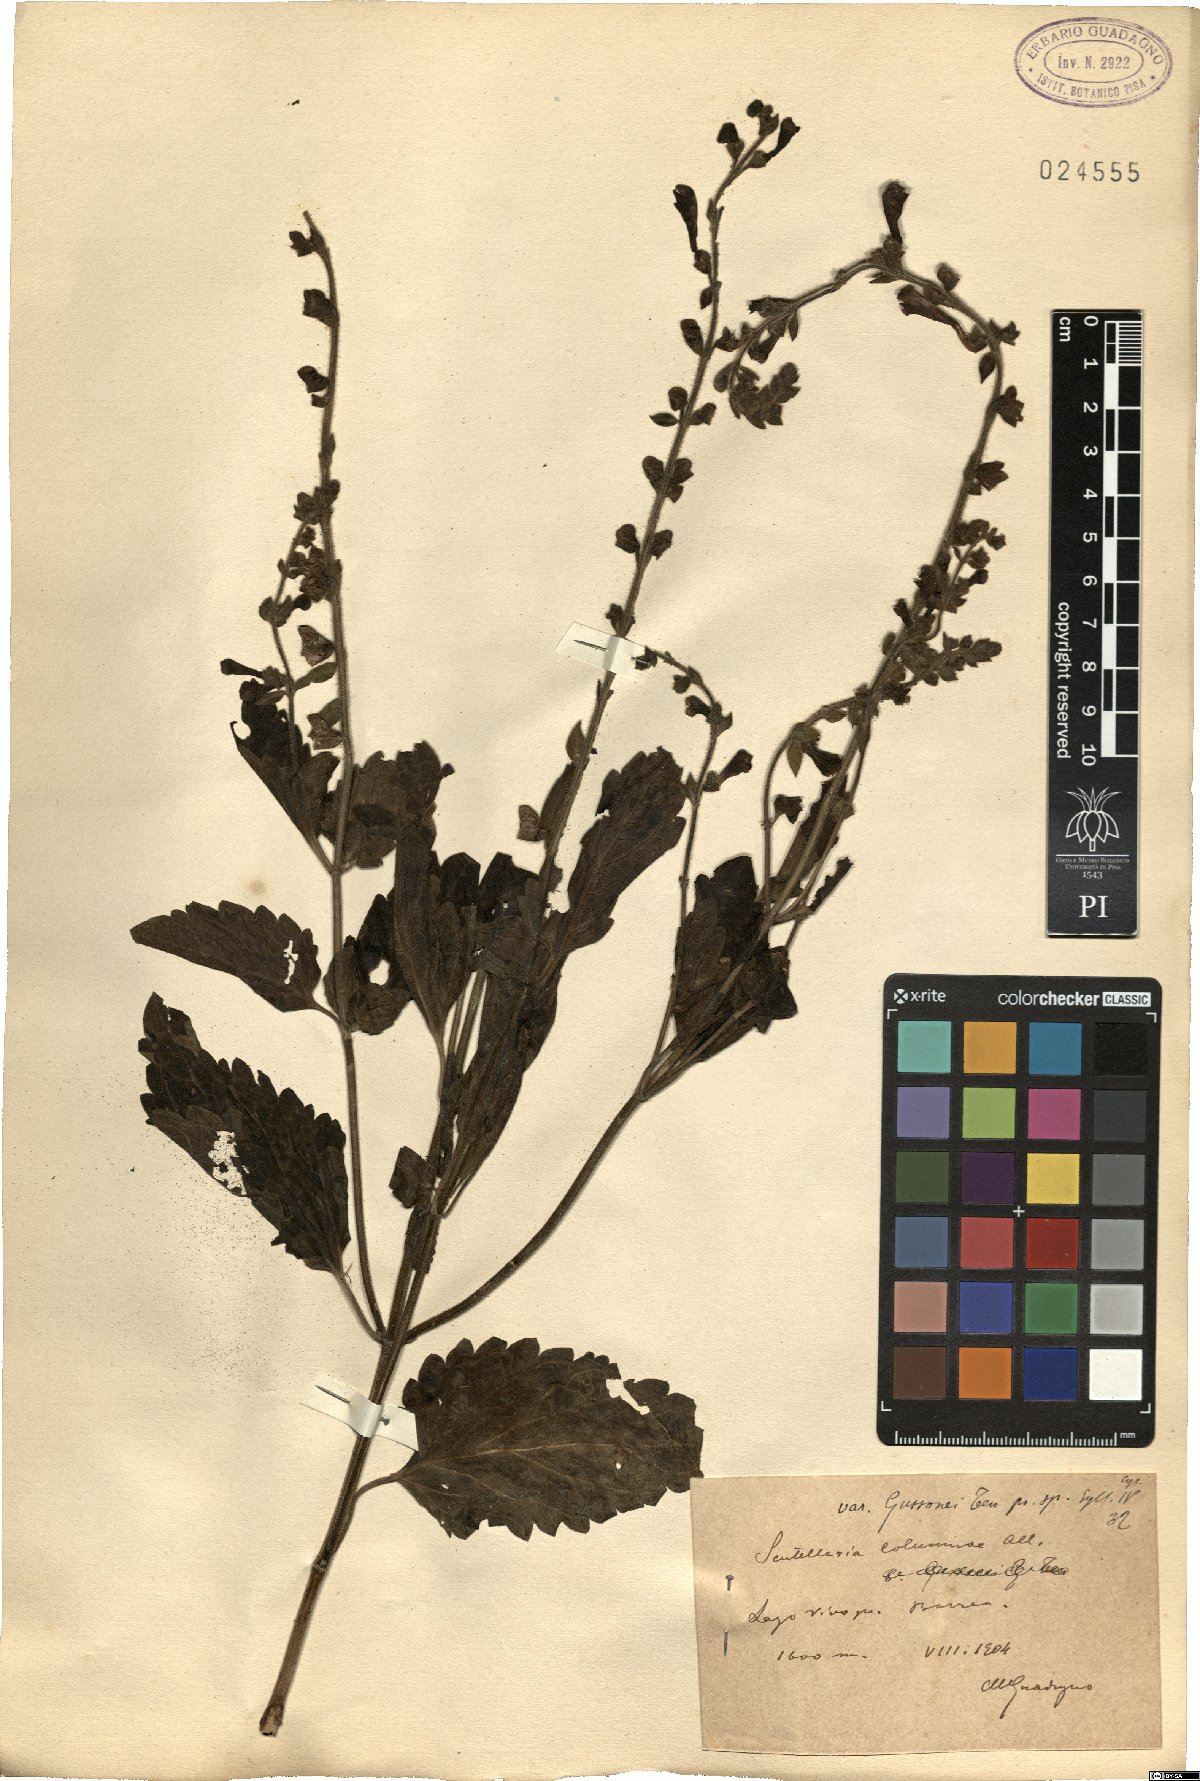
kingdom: Plantae
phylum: Tracheophyta
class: Magnoliopsida
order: Lamiales
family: Lamiaceae
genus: Scutellaria
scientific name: Scutellaria columnae
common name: Large skullcap
